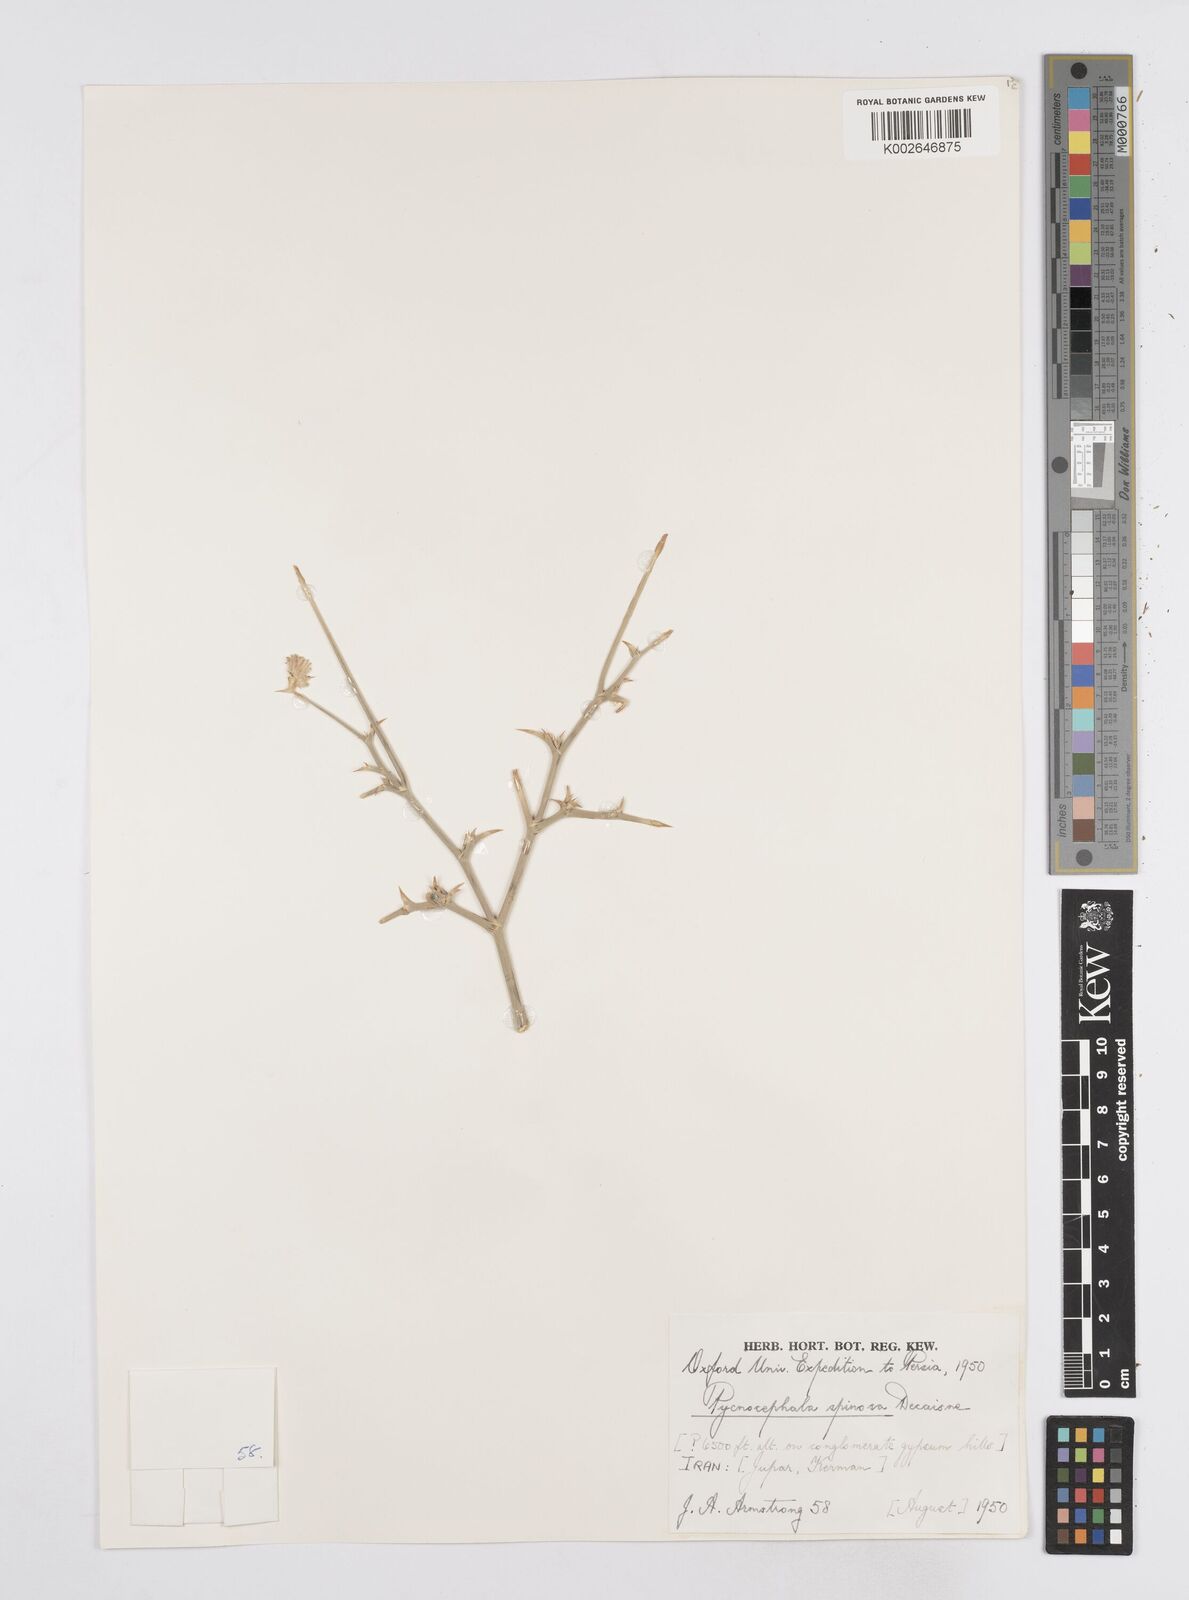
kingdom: Plantae
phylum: Tracheophyta
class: Magnoliopsida
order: Apiales
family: Apiaceae
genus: Pycnocycla
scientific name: Pycnocycla spinosa
